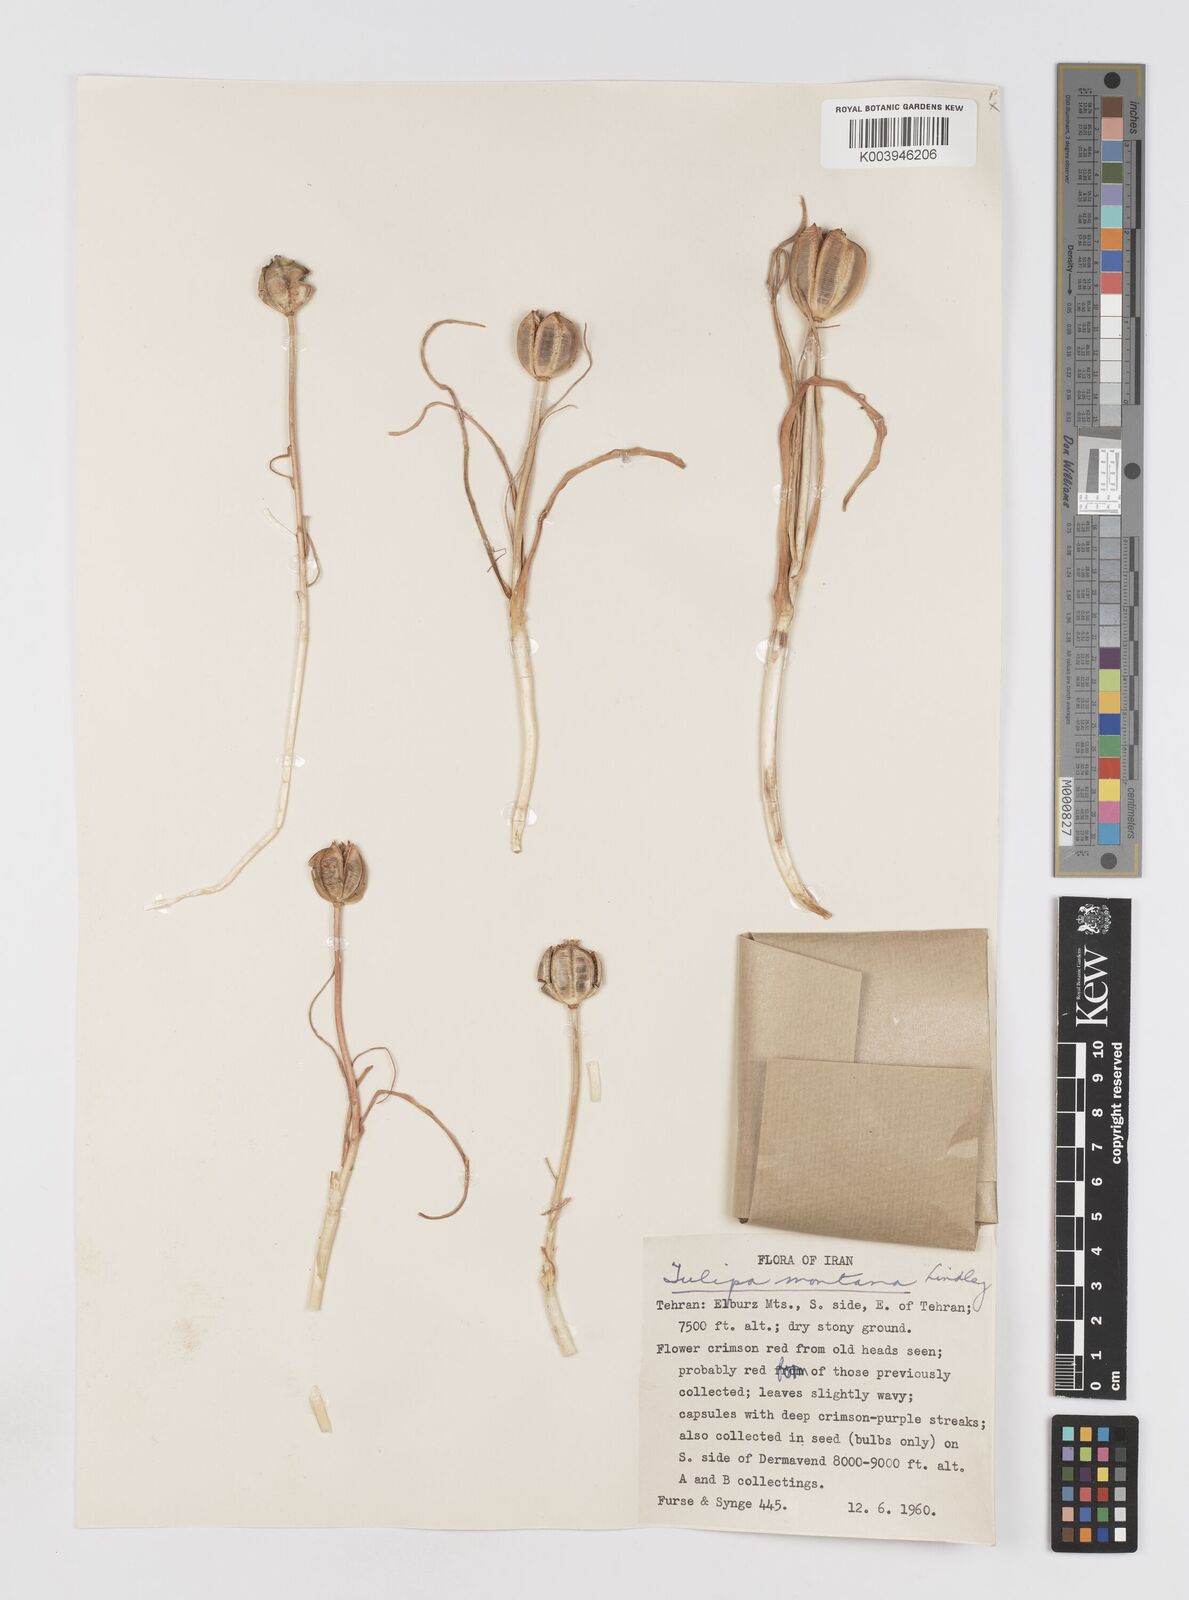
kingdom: Plantae
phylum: Tracheophyta
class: Liliopsida
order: Liliales
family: Liliaceae
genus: Tulipa
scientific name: Tulipa montana
